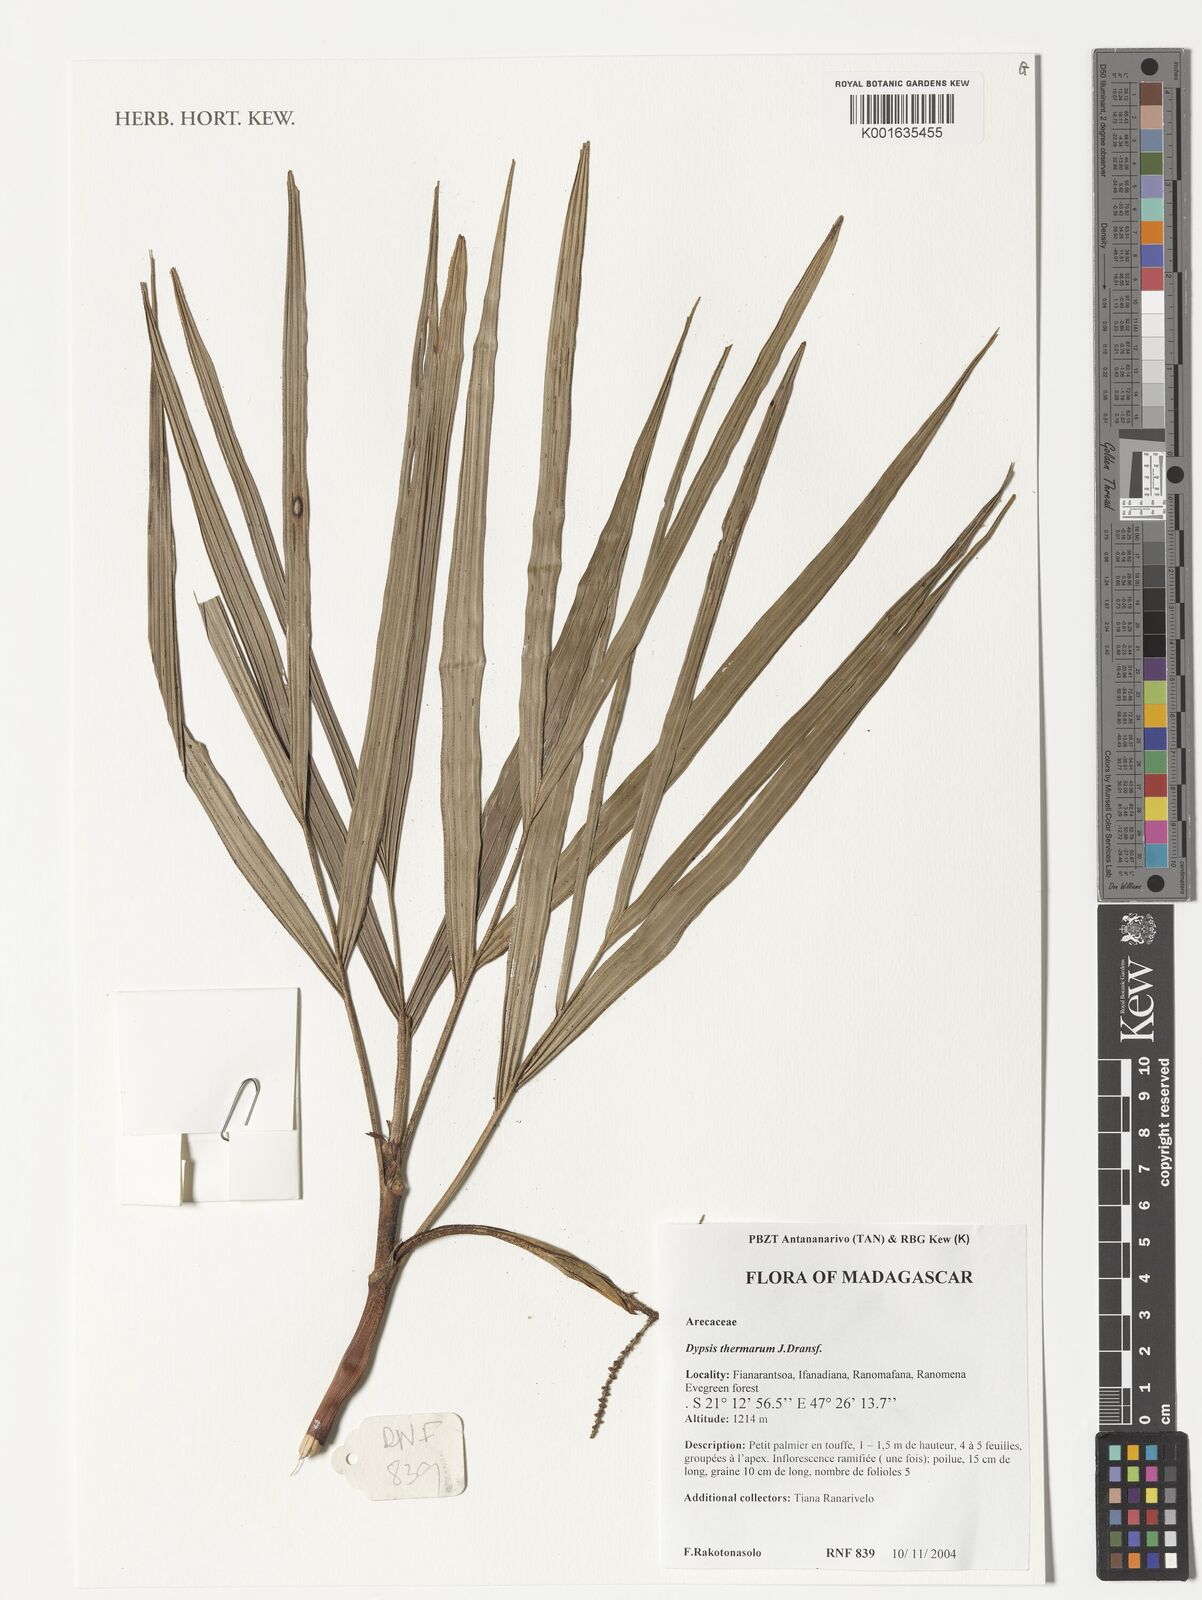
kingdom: Plantae
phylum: Tracheophyta
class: Liliopsida
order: Arecales
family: Arecaceae
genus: Dypsis
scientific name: Dypsis thermarum
